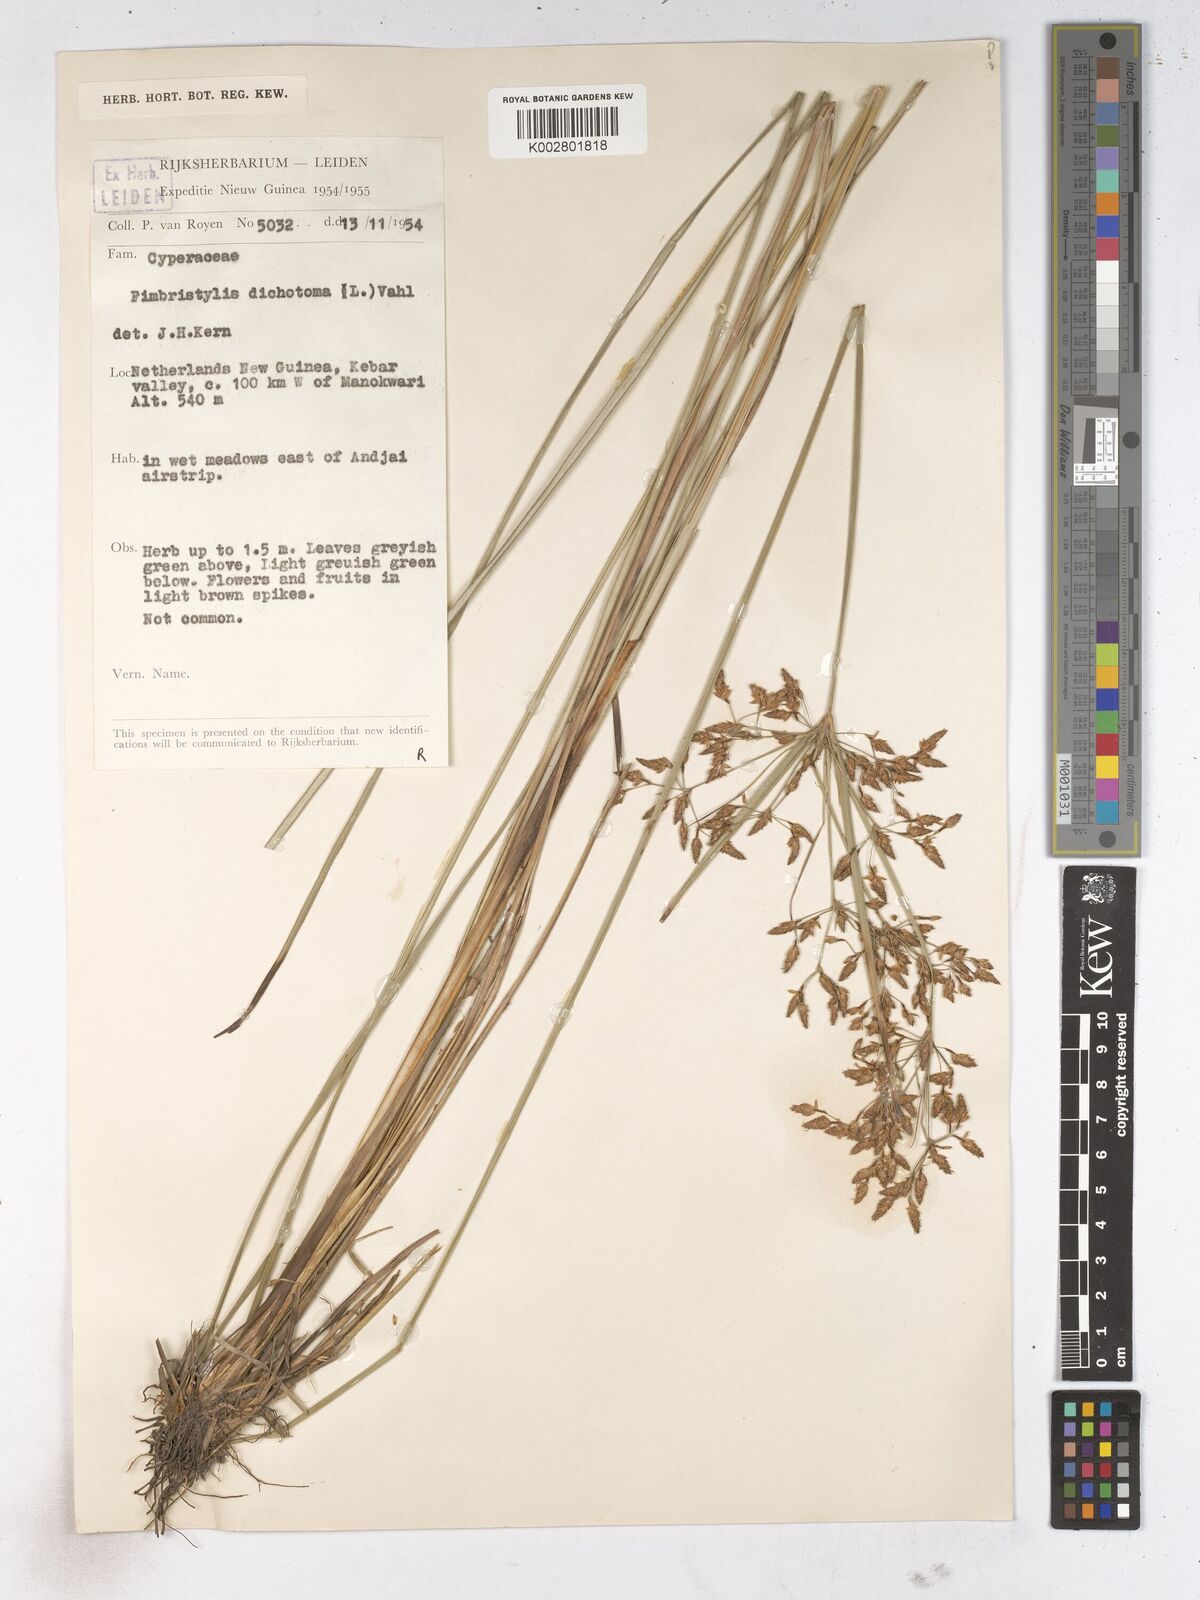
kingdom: Plantae
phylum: Tracheophyta
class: Liliopsida
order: Poales
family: Cyperaceae
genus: Fimbristylis
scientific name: Fimbristylis dichotoma
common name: Forked fimbry
